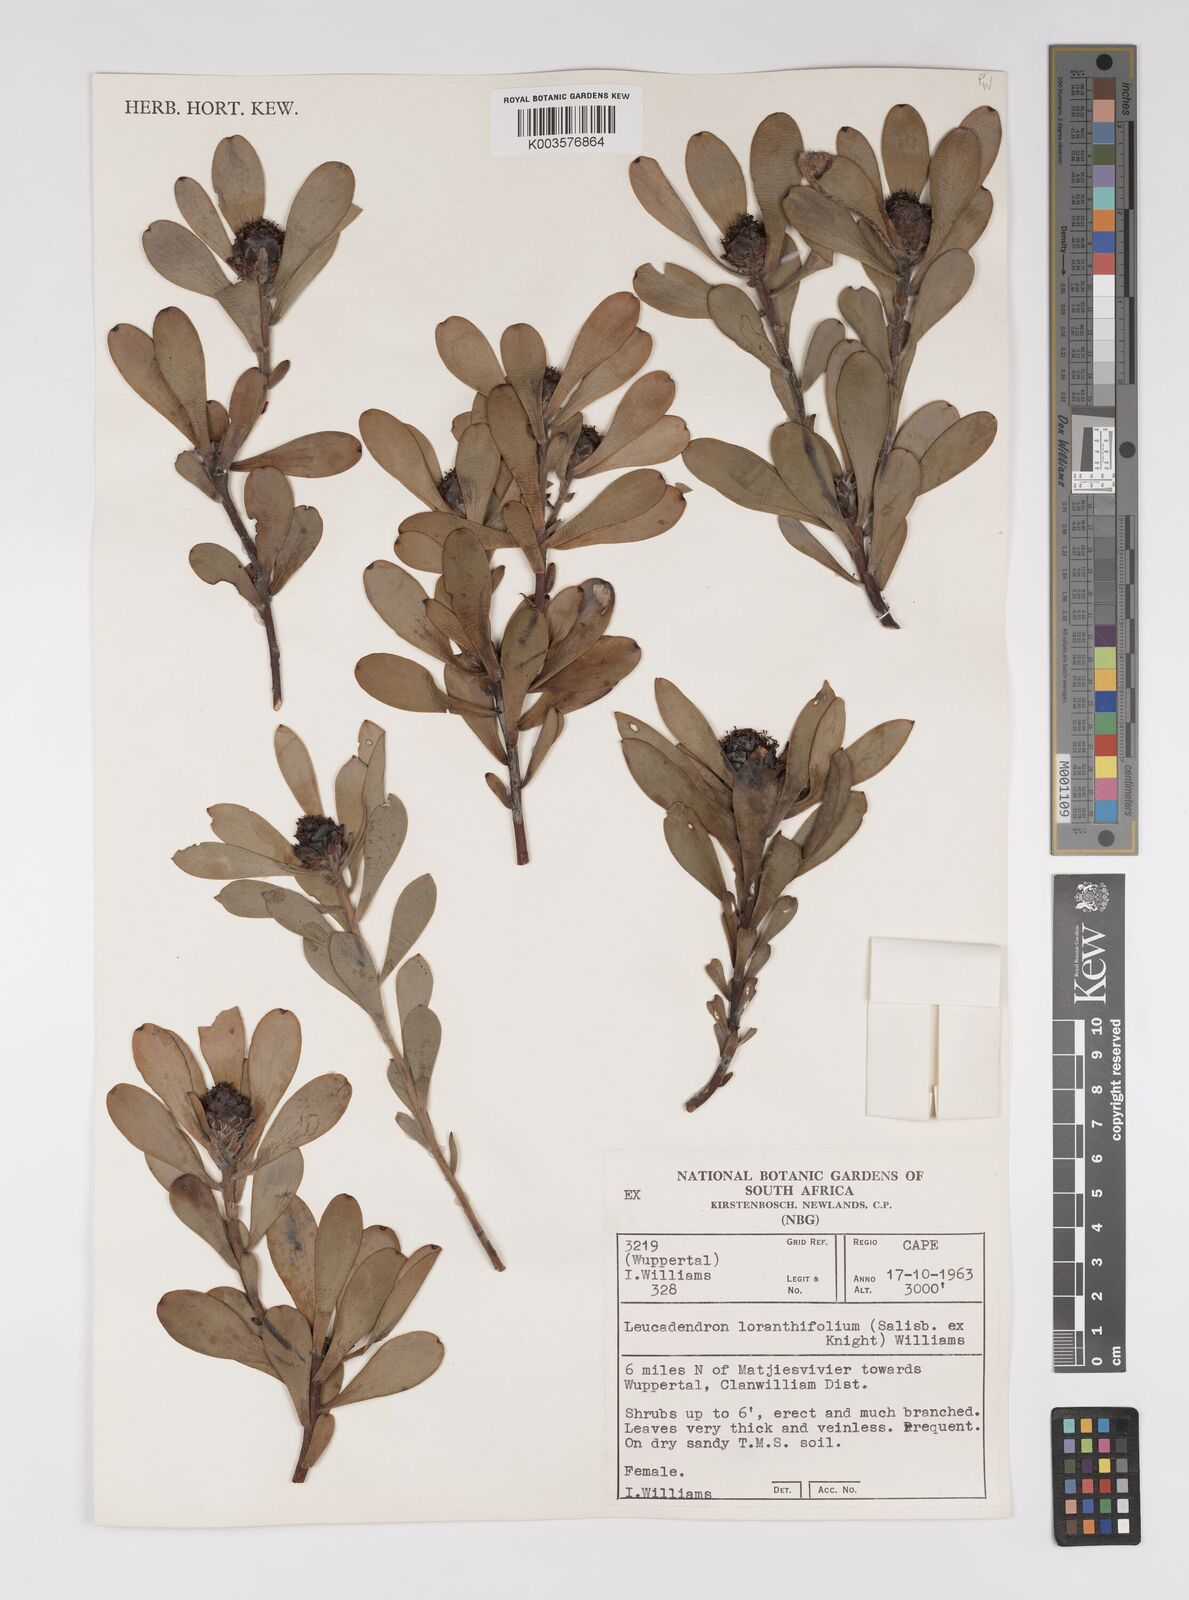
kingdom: Plantae
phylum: Tracheophyta
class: Magnoliopsida
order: Proteales
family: Proteaceae
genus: Leucadendron
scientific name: Leucadendron loranthifolium
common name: Green-flower sunbush
